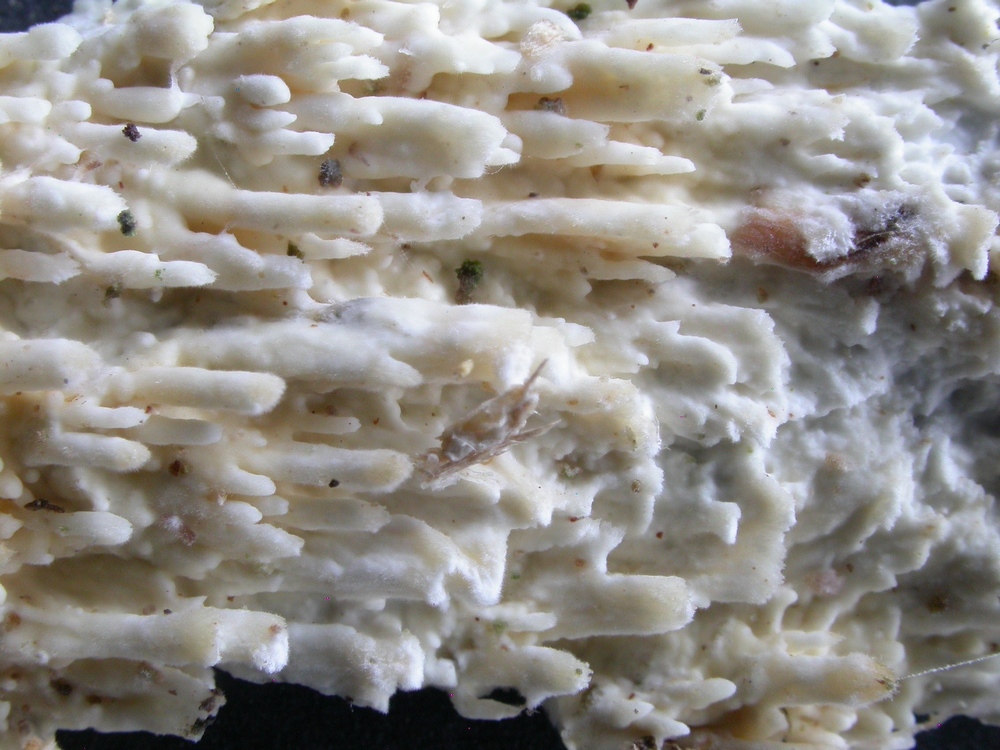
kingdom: Fungi
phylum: Basidiomycota
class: Agaricomycetes
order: Hymenochaetales
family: Schizoporaceae
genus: Xylodon
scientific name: Xylodon radula
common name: grovtandet kalkskind
